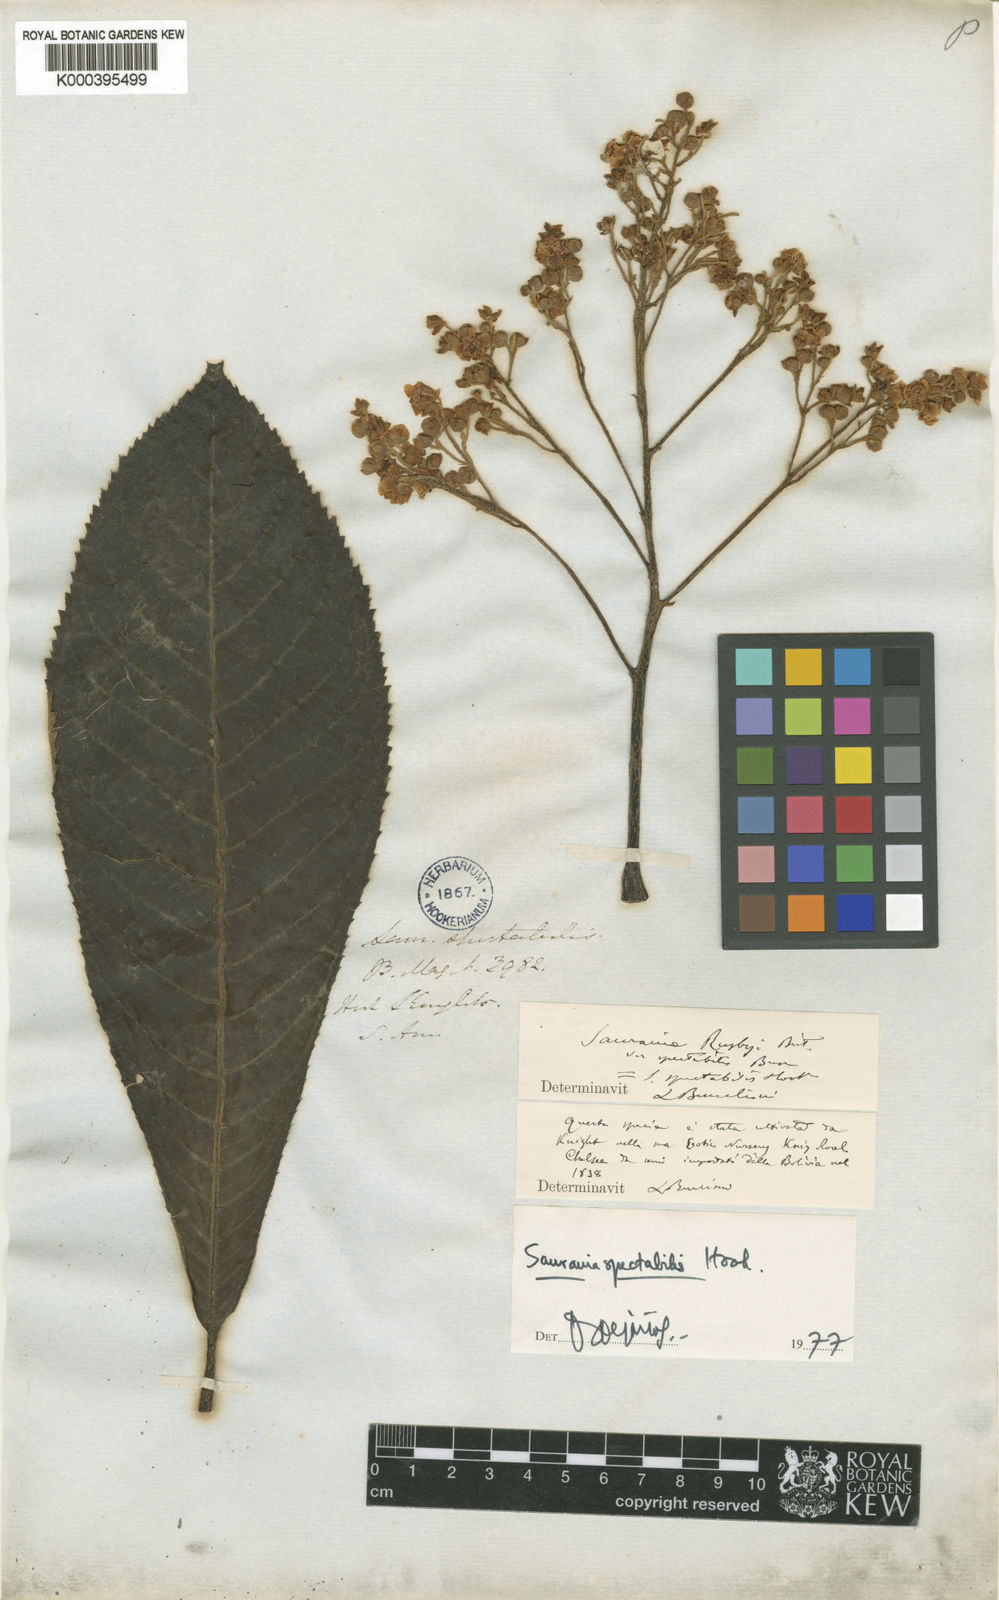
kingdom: Plantae
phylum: Tracheophyta
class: Magnoliopsida
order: Ericales
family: Actinidiaceae
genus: Saurauia
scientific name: Saurauia spectabilis
